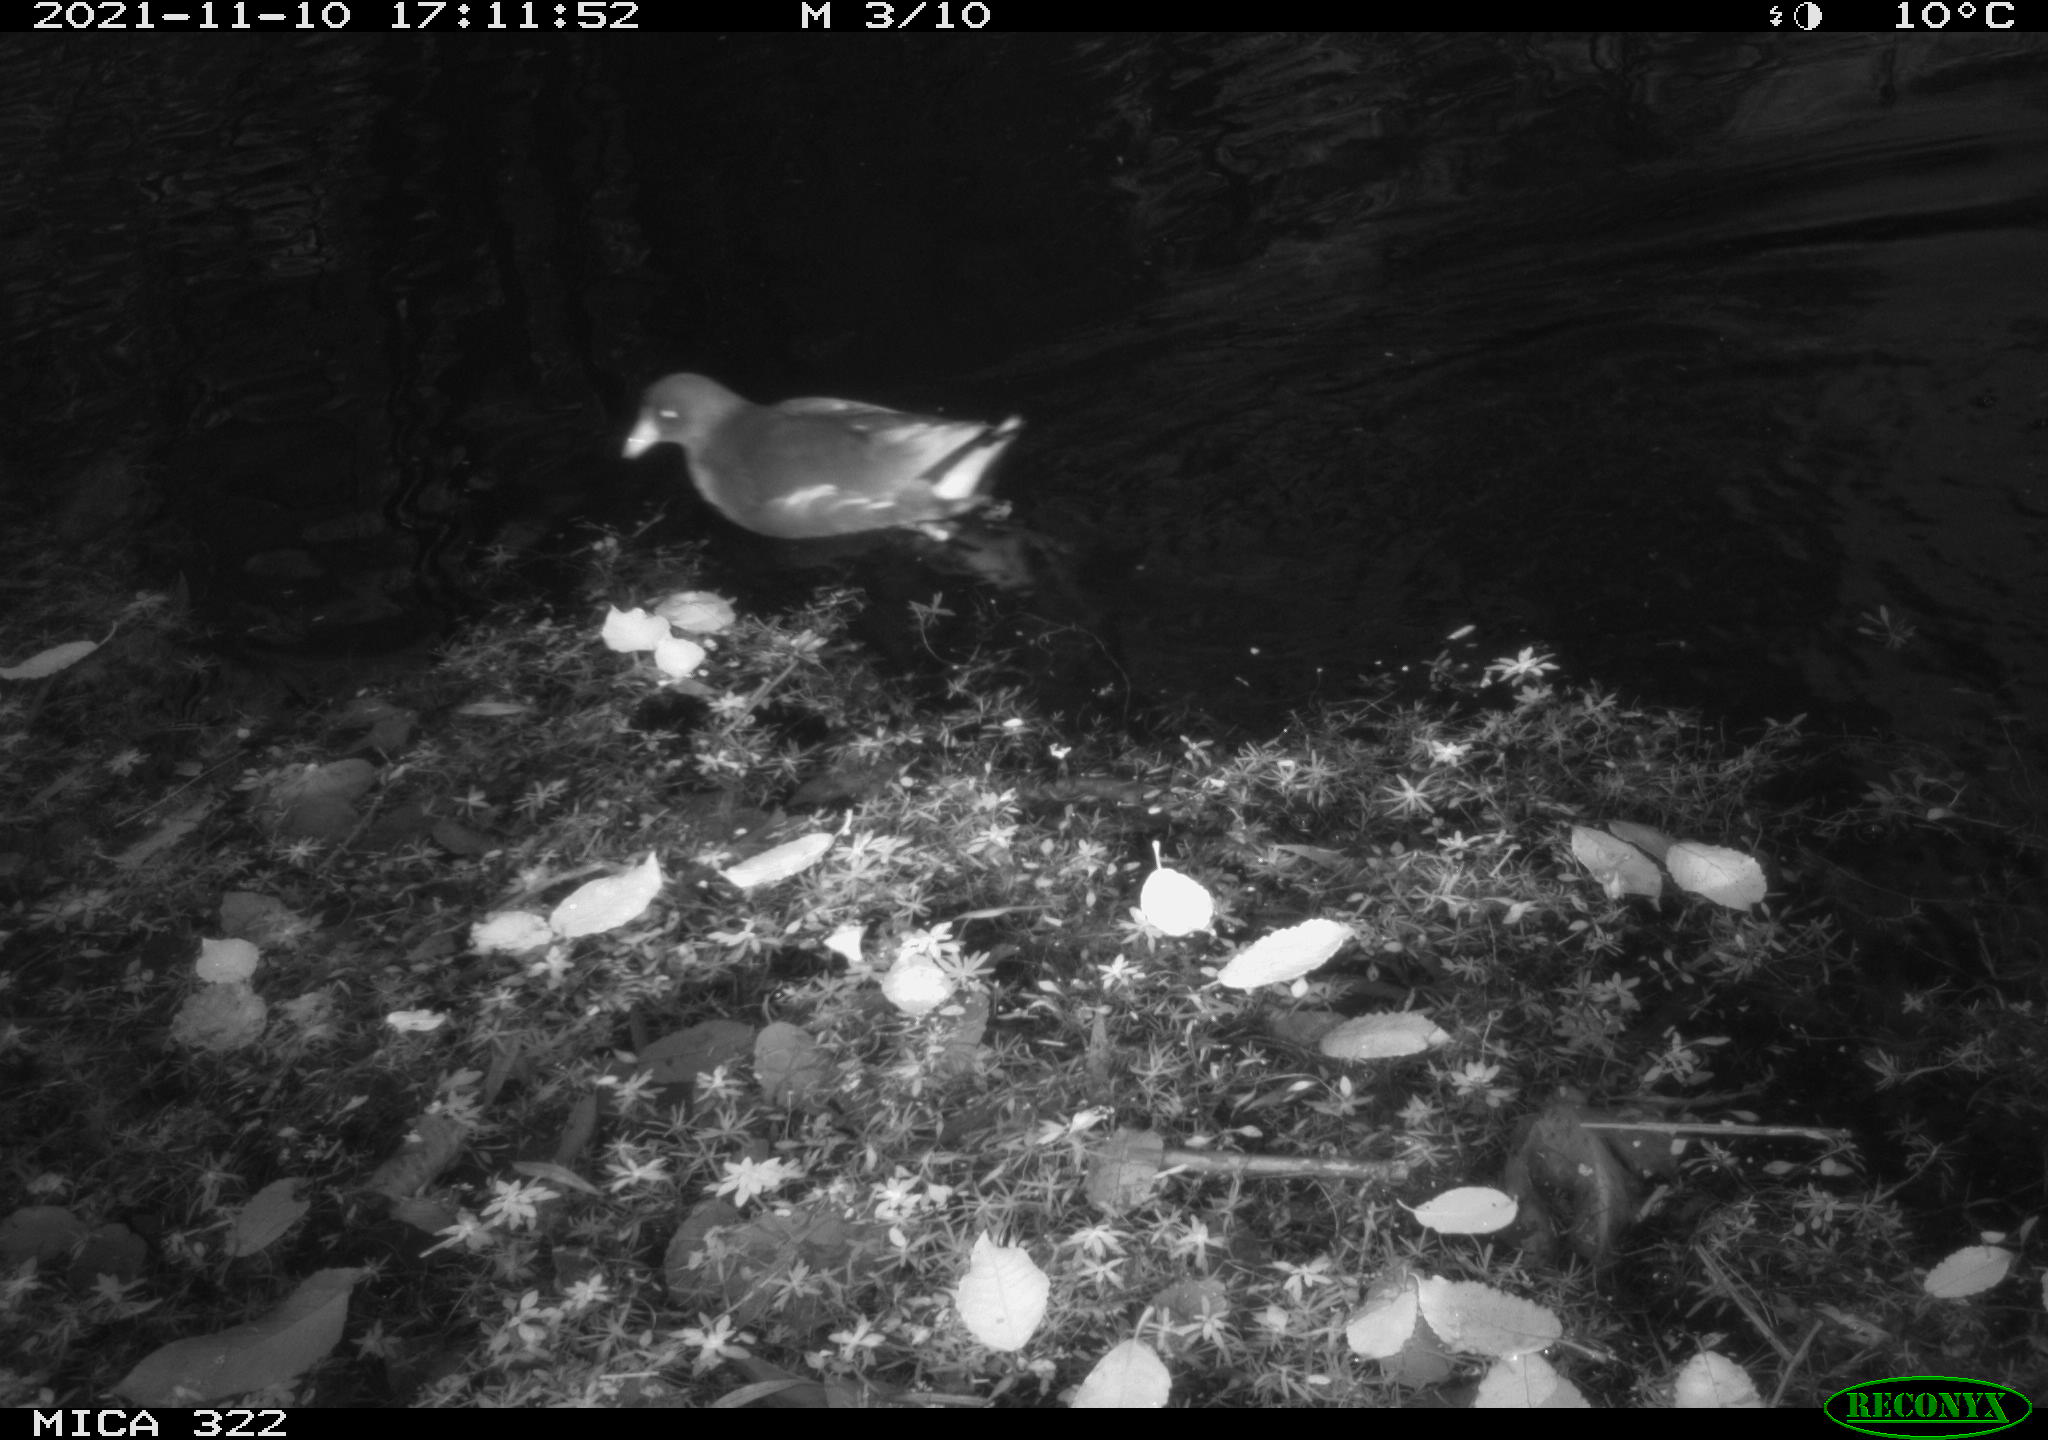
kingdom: Animalia
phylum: Chordata
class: Aves
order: Gruiformes
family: Rallidae
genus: Gallinula
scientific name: Gallinula chloropus
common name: Common moorhen
